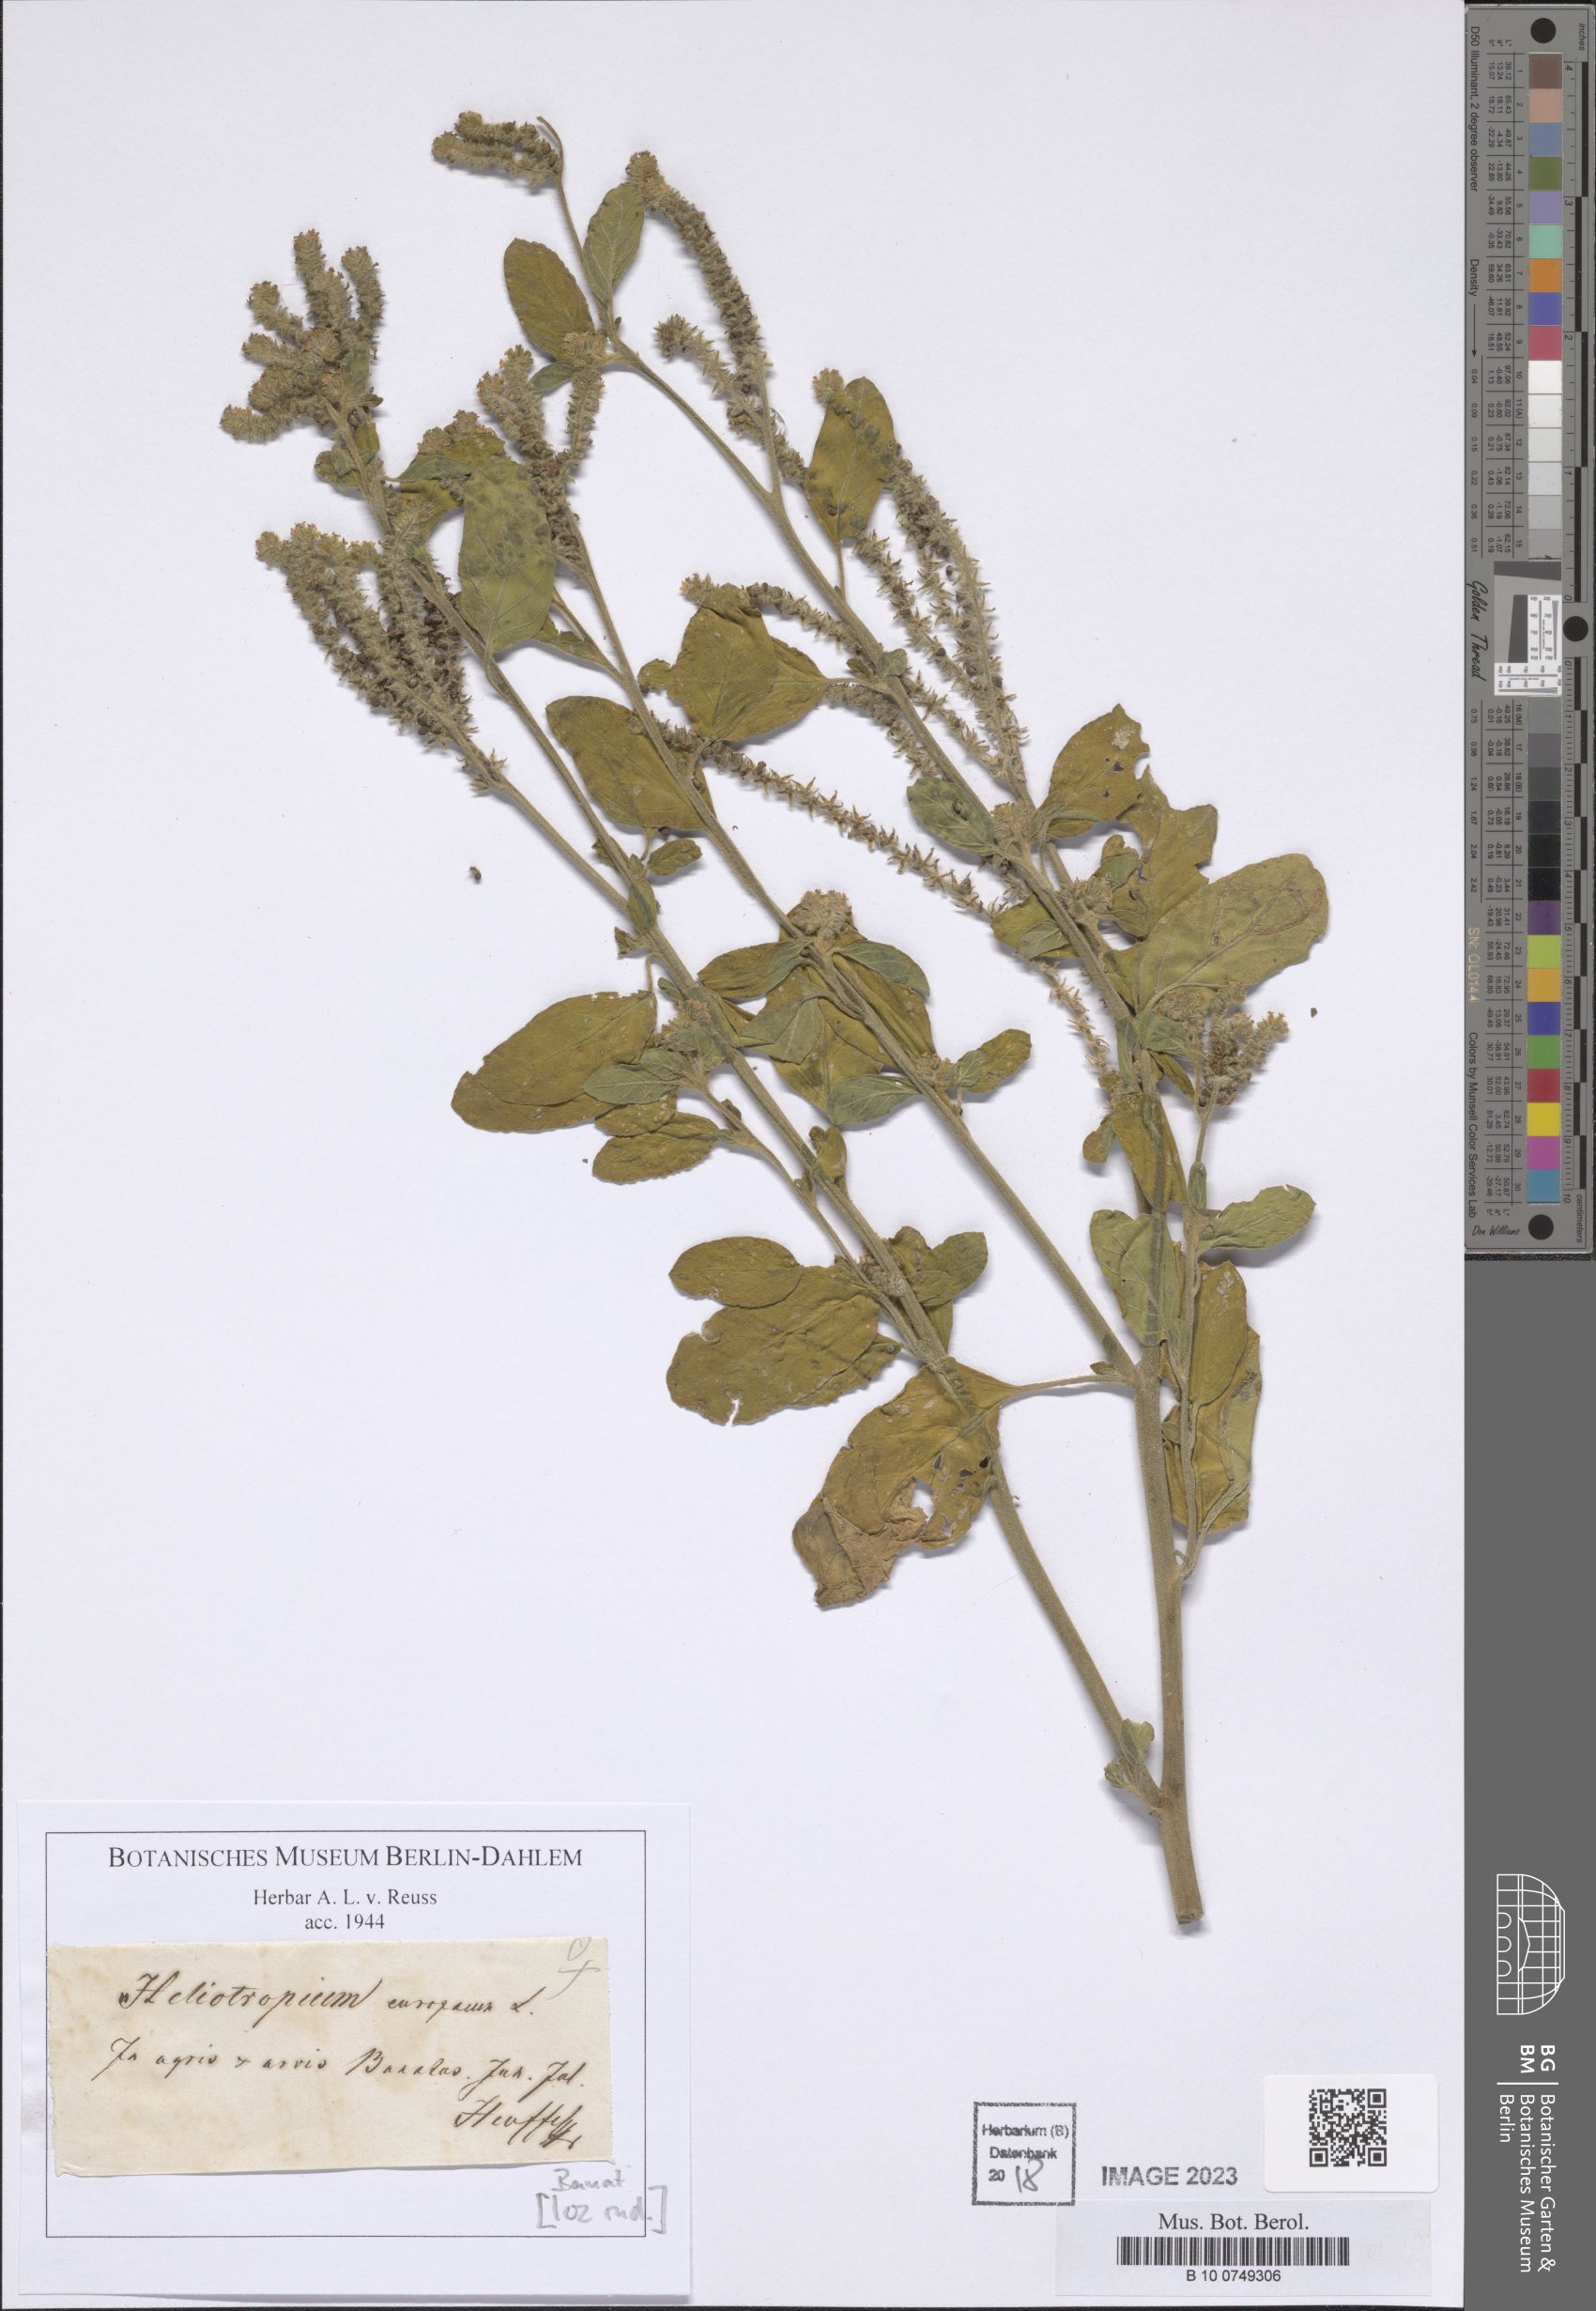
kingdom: Plantae
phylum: Tracheophyta
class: Magnoliopsida
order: Boraginales
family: Heliotropiaceae
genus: Heliotropium
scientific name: Heliotropium europaeum
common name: European heliotrope
